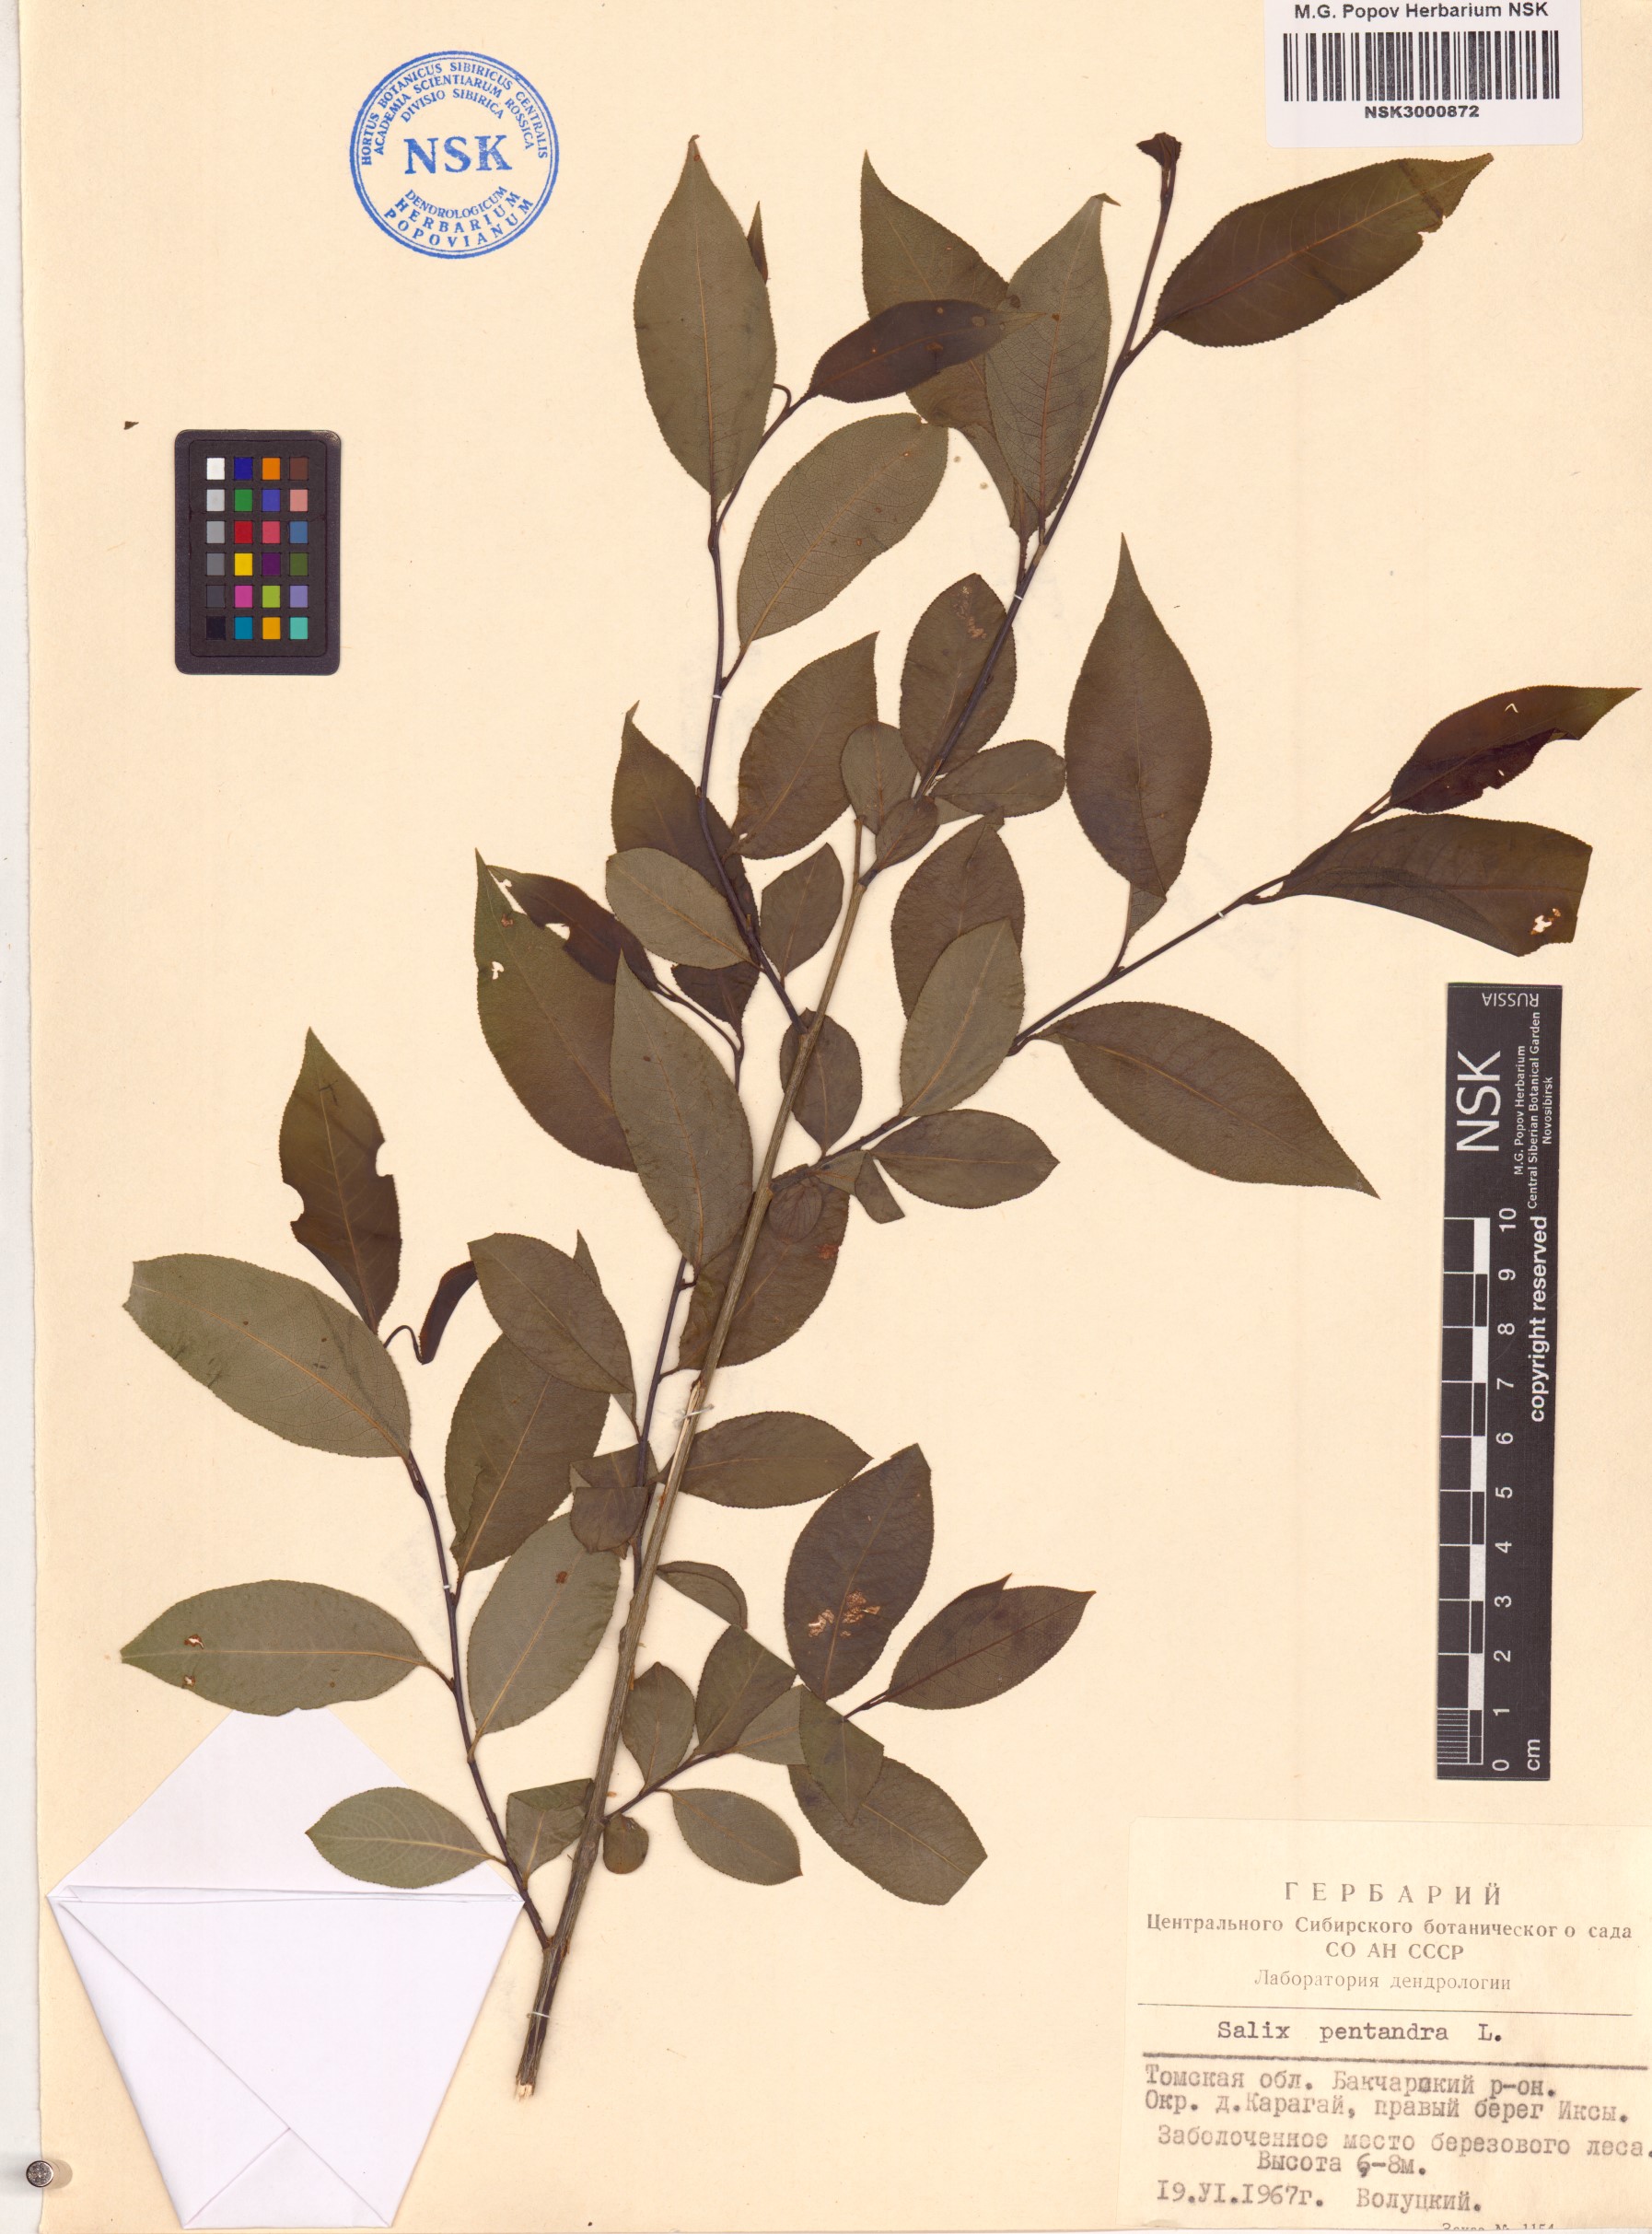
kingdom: Plantae
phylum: Tracheophyta
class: Magnoliopsida
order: Malpighiales
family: Salicaceae
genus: Salix
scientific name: Salix pentandra
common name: Bay willow
